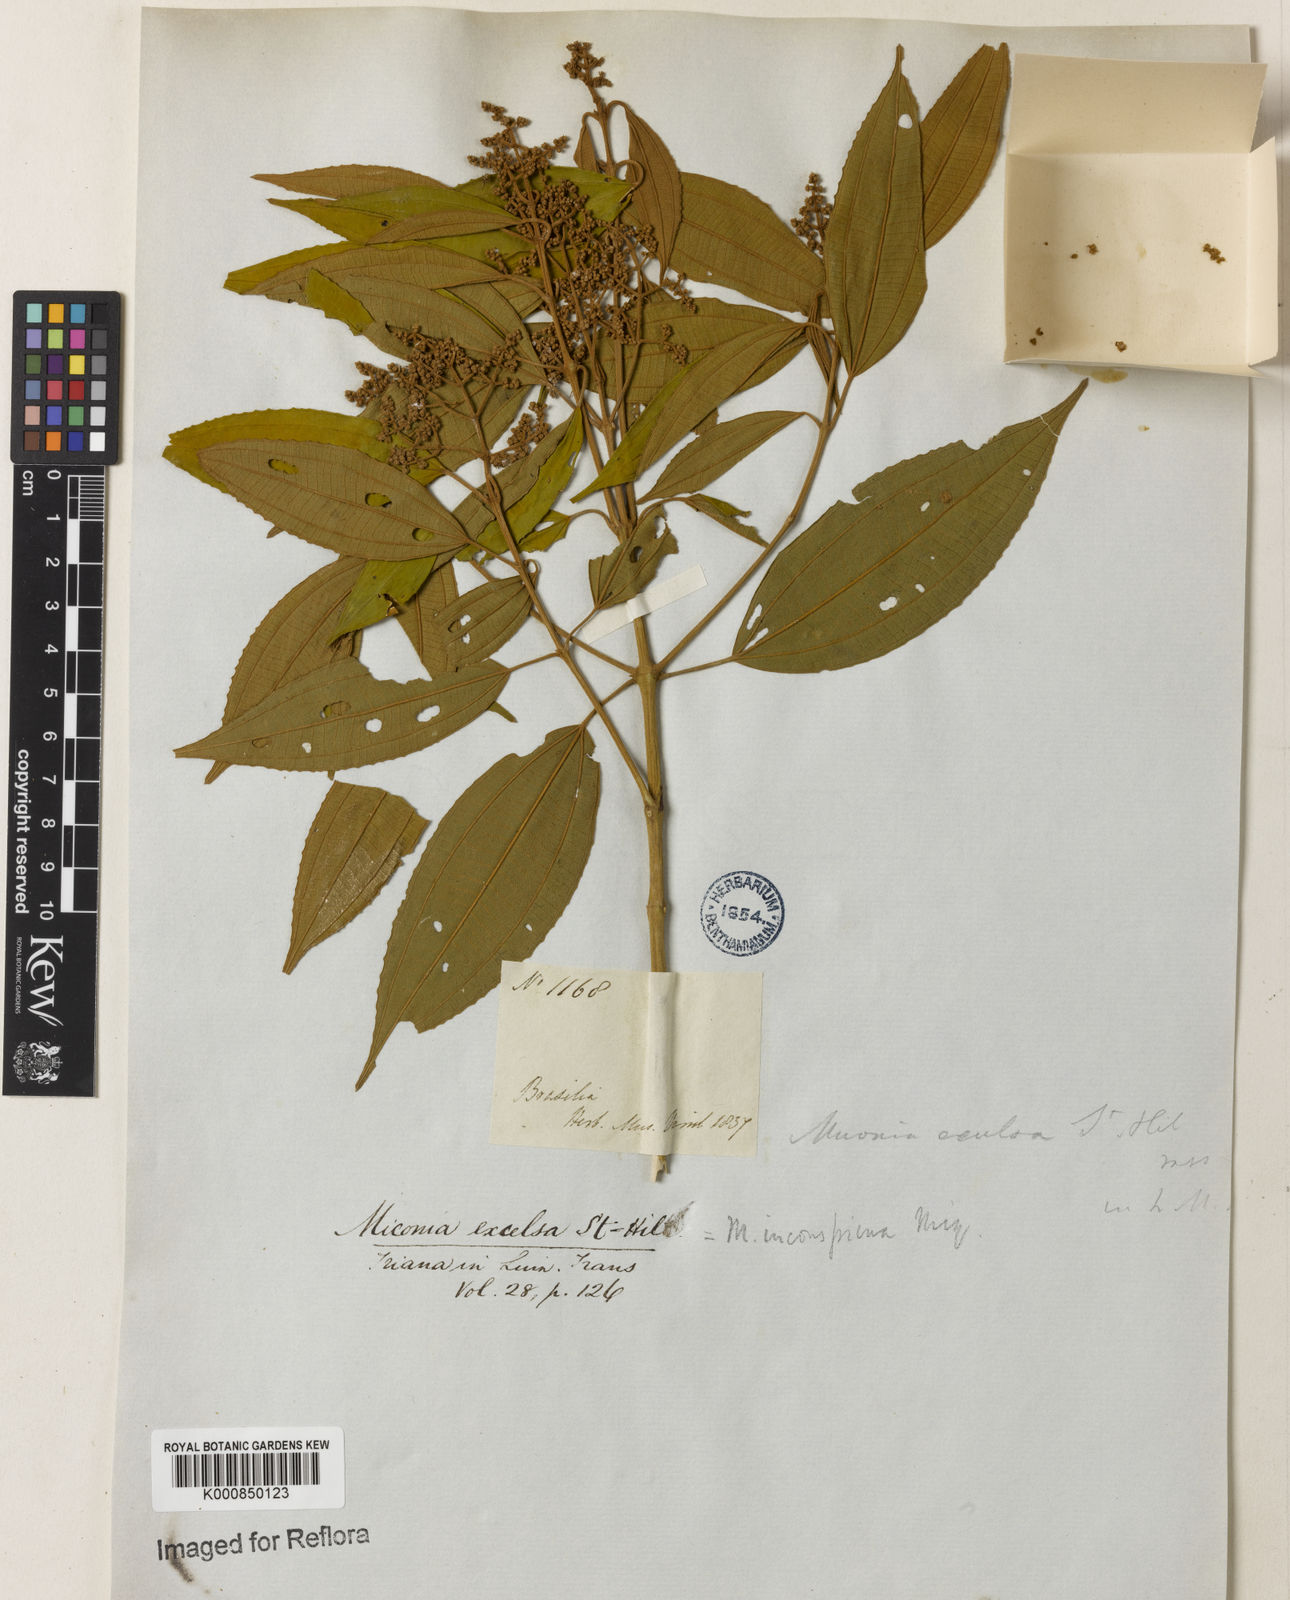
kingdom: Plantae
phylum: Tracheophyta
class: Magnoliopsida
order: Myrtales
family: Melastomataceae
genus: Miconia
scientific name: Miconia inconspicua
